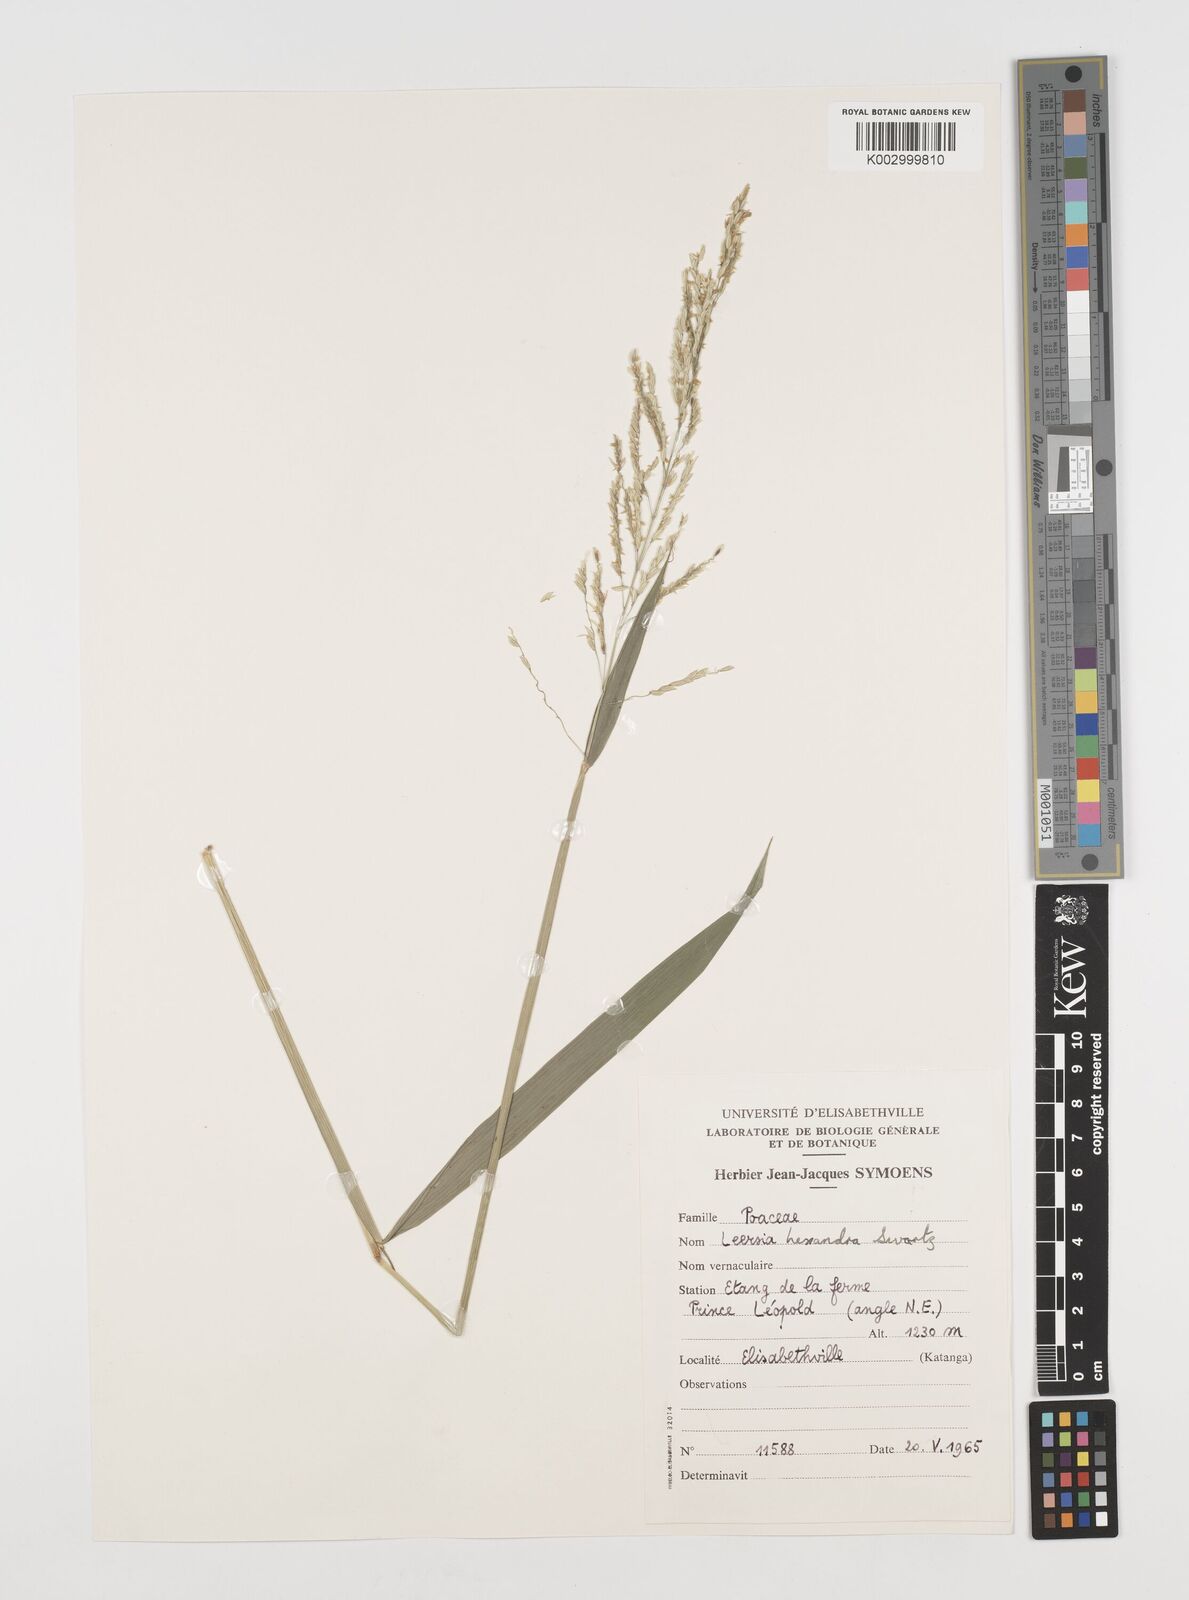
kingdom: Plantae
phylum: Tracheophyta
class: Liliopsida
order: Poales
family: Poaceae
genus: Leersia
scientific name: Leersia hexandra
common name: Southern cut grass
